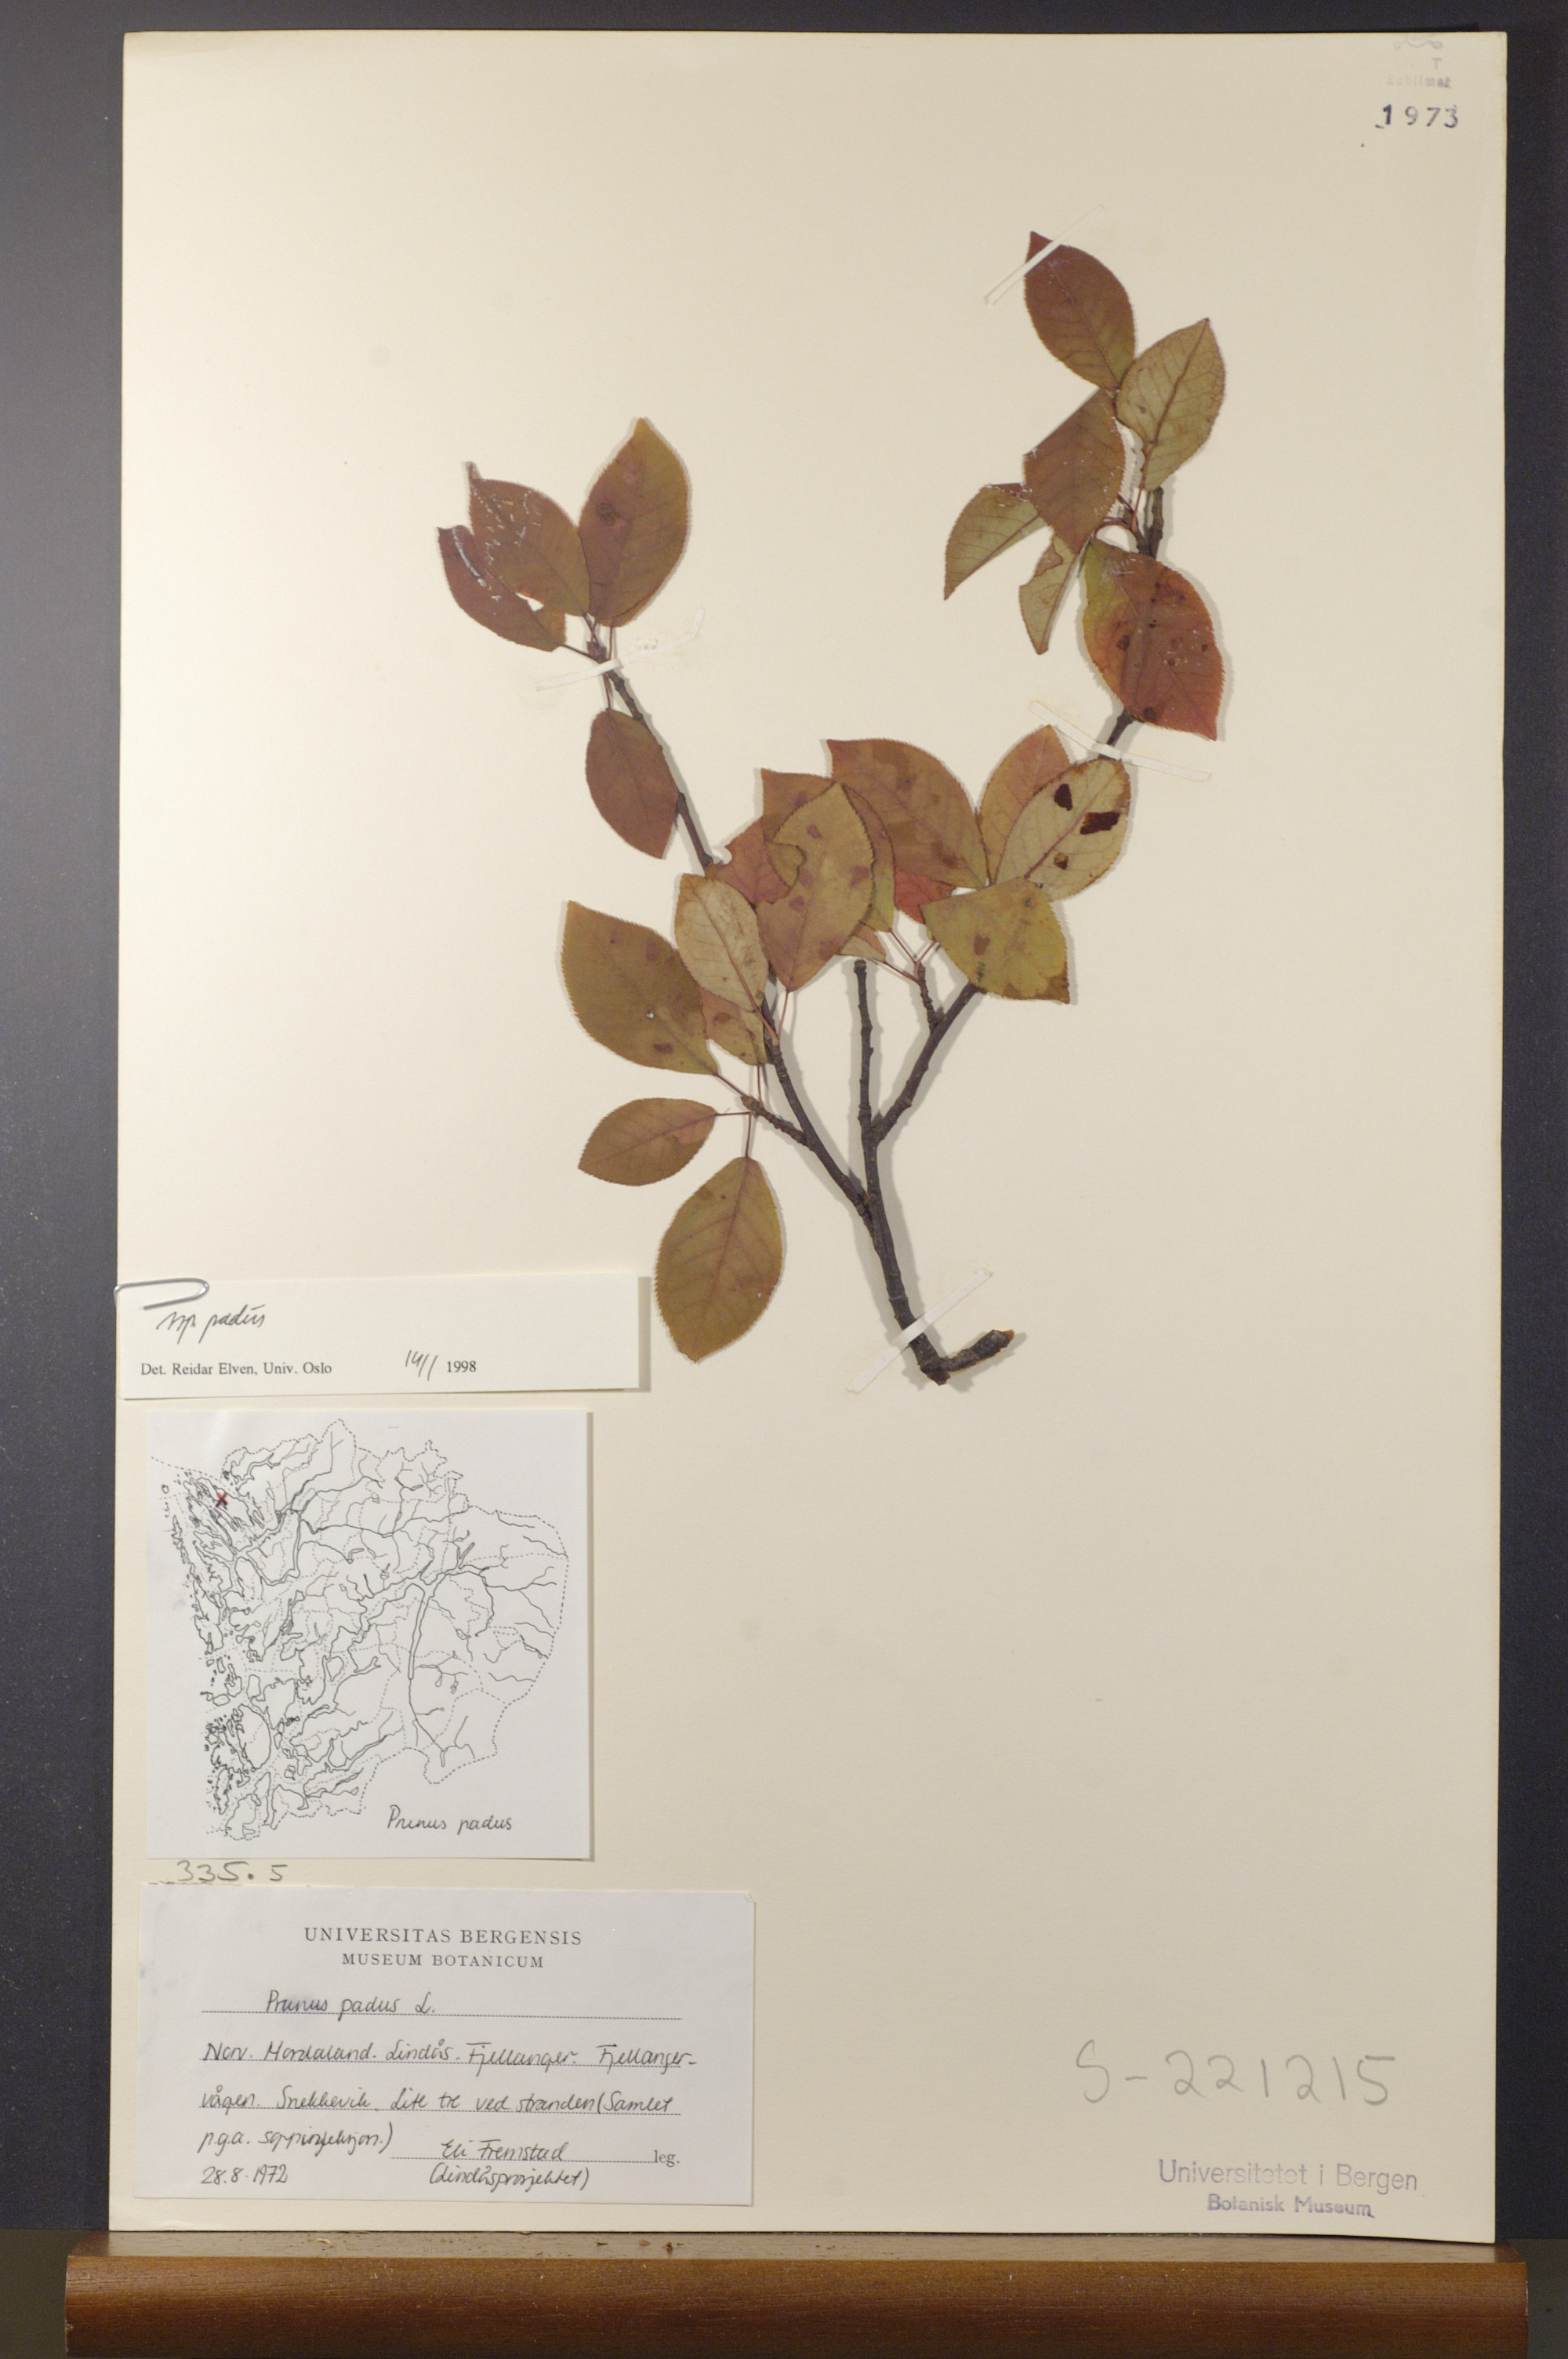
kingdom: Plantae
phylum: Tracheophyta
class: Magnoliopsida
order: Rosales
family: Rosaceae
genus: Prunus
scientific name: Prunus padus
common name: Bird cherry
